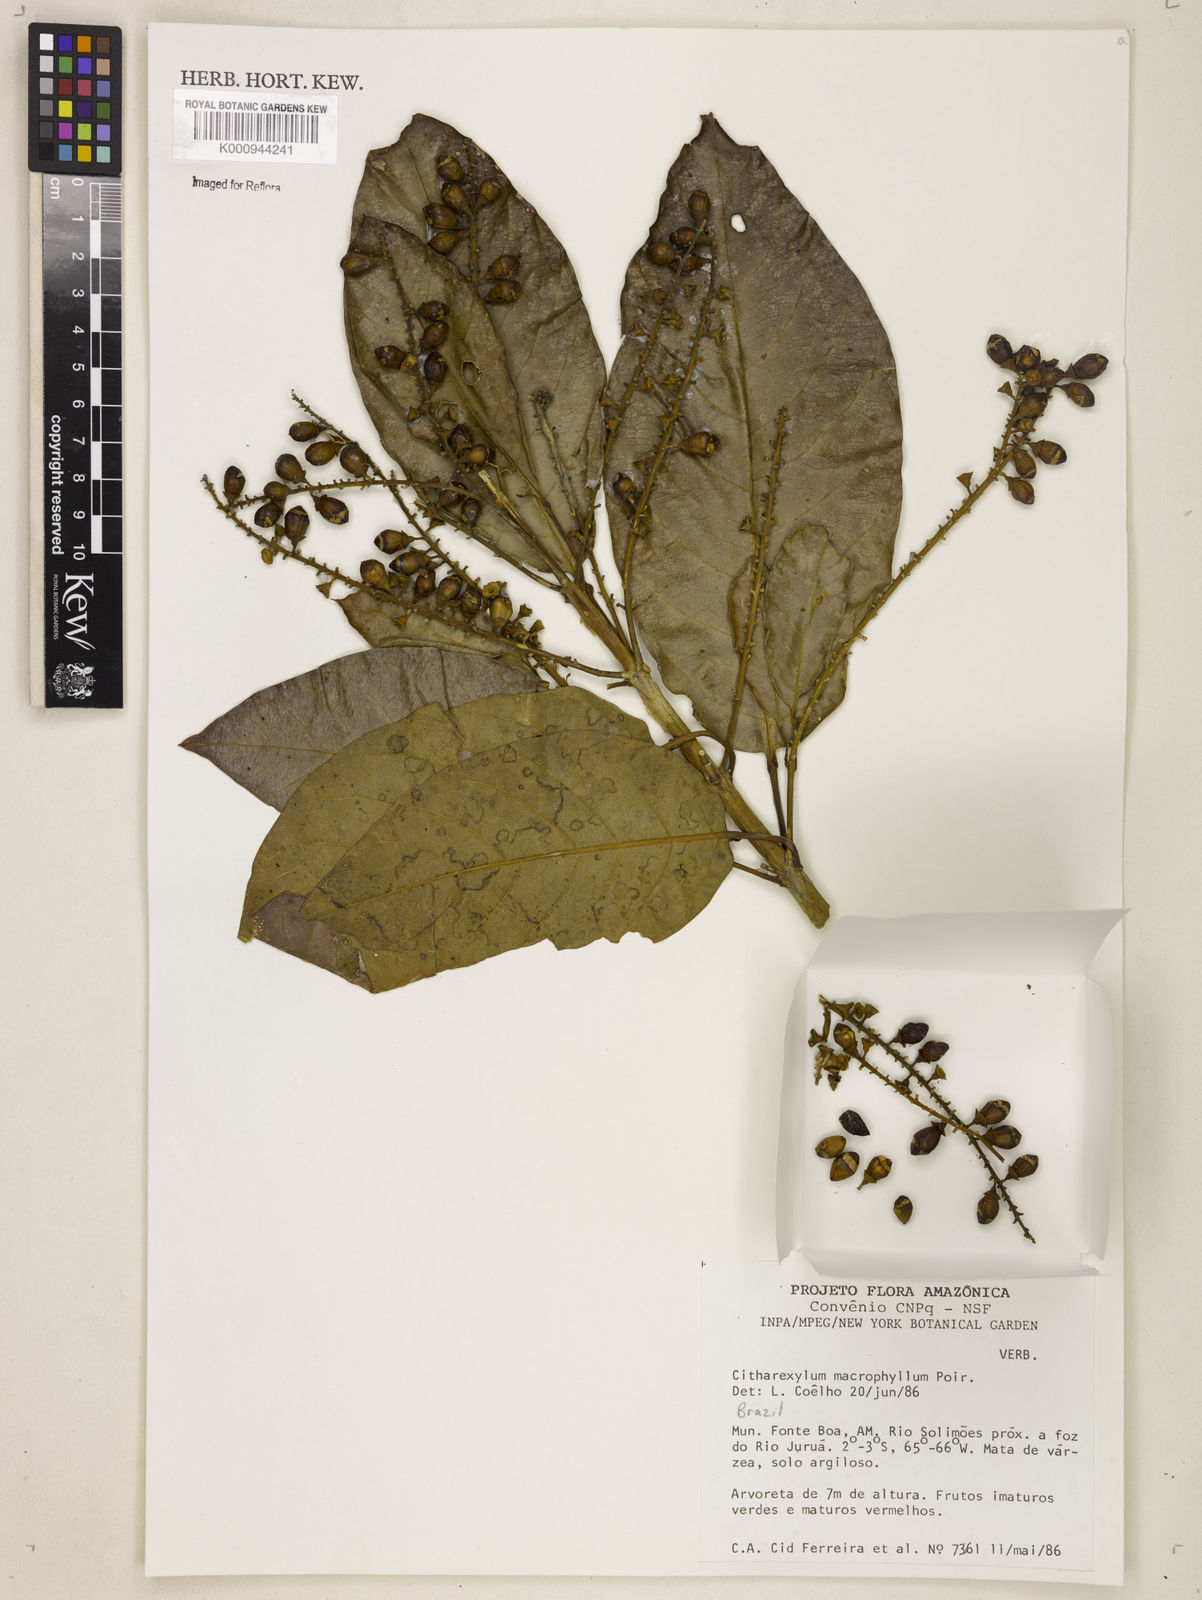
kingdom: Plantae
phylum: Tracheophyta
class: Magnoliopsida
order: Lamiales
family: Verbenaceae
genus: Citharexylum
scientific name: Citharexylum spinosum
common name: Fiddlewood
